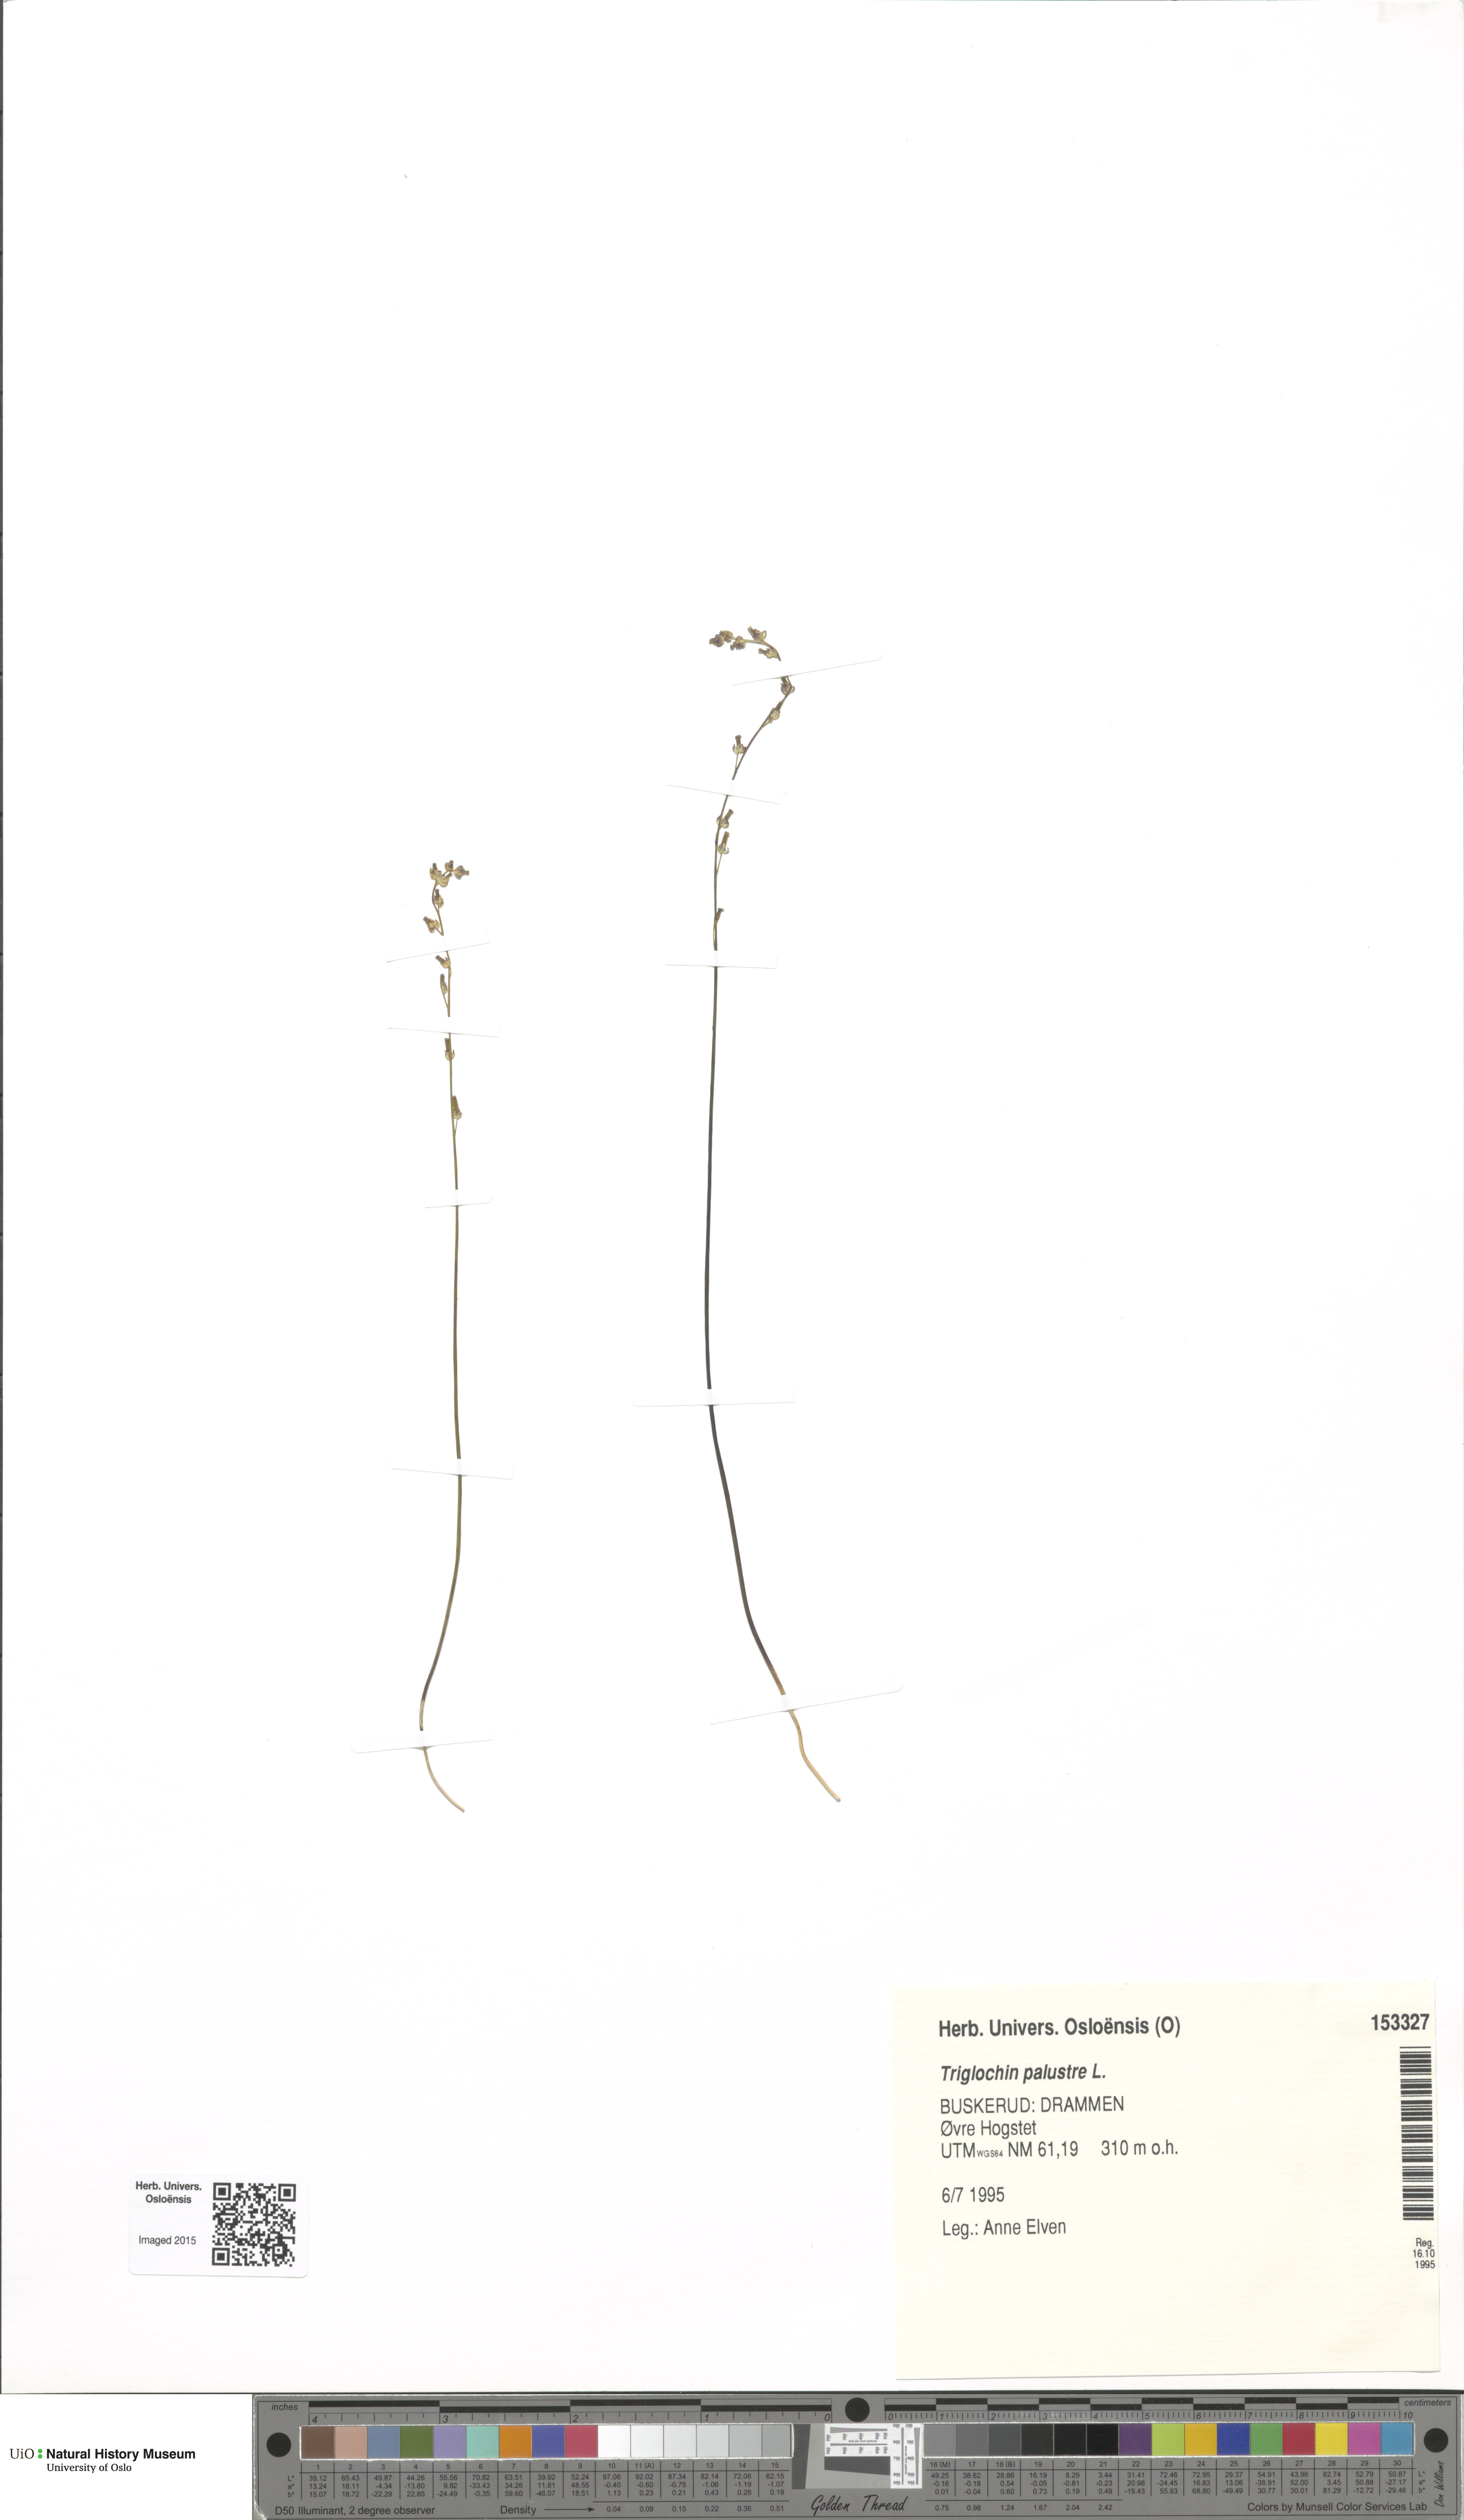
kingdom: Plantae
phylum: Tracheophyta
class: Liliopsida
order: Alismatales
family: Juncaginaceae
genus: Triglochin
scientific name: Triglochin palustris
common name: Marsh arrowgrass
